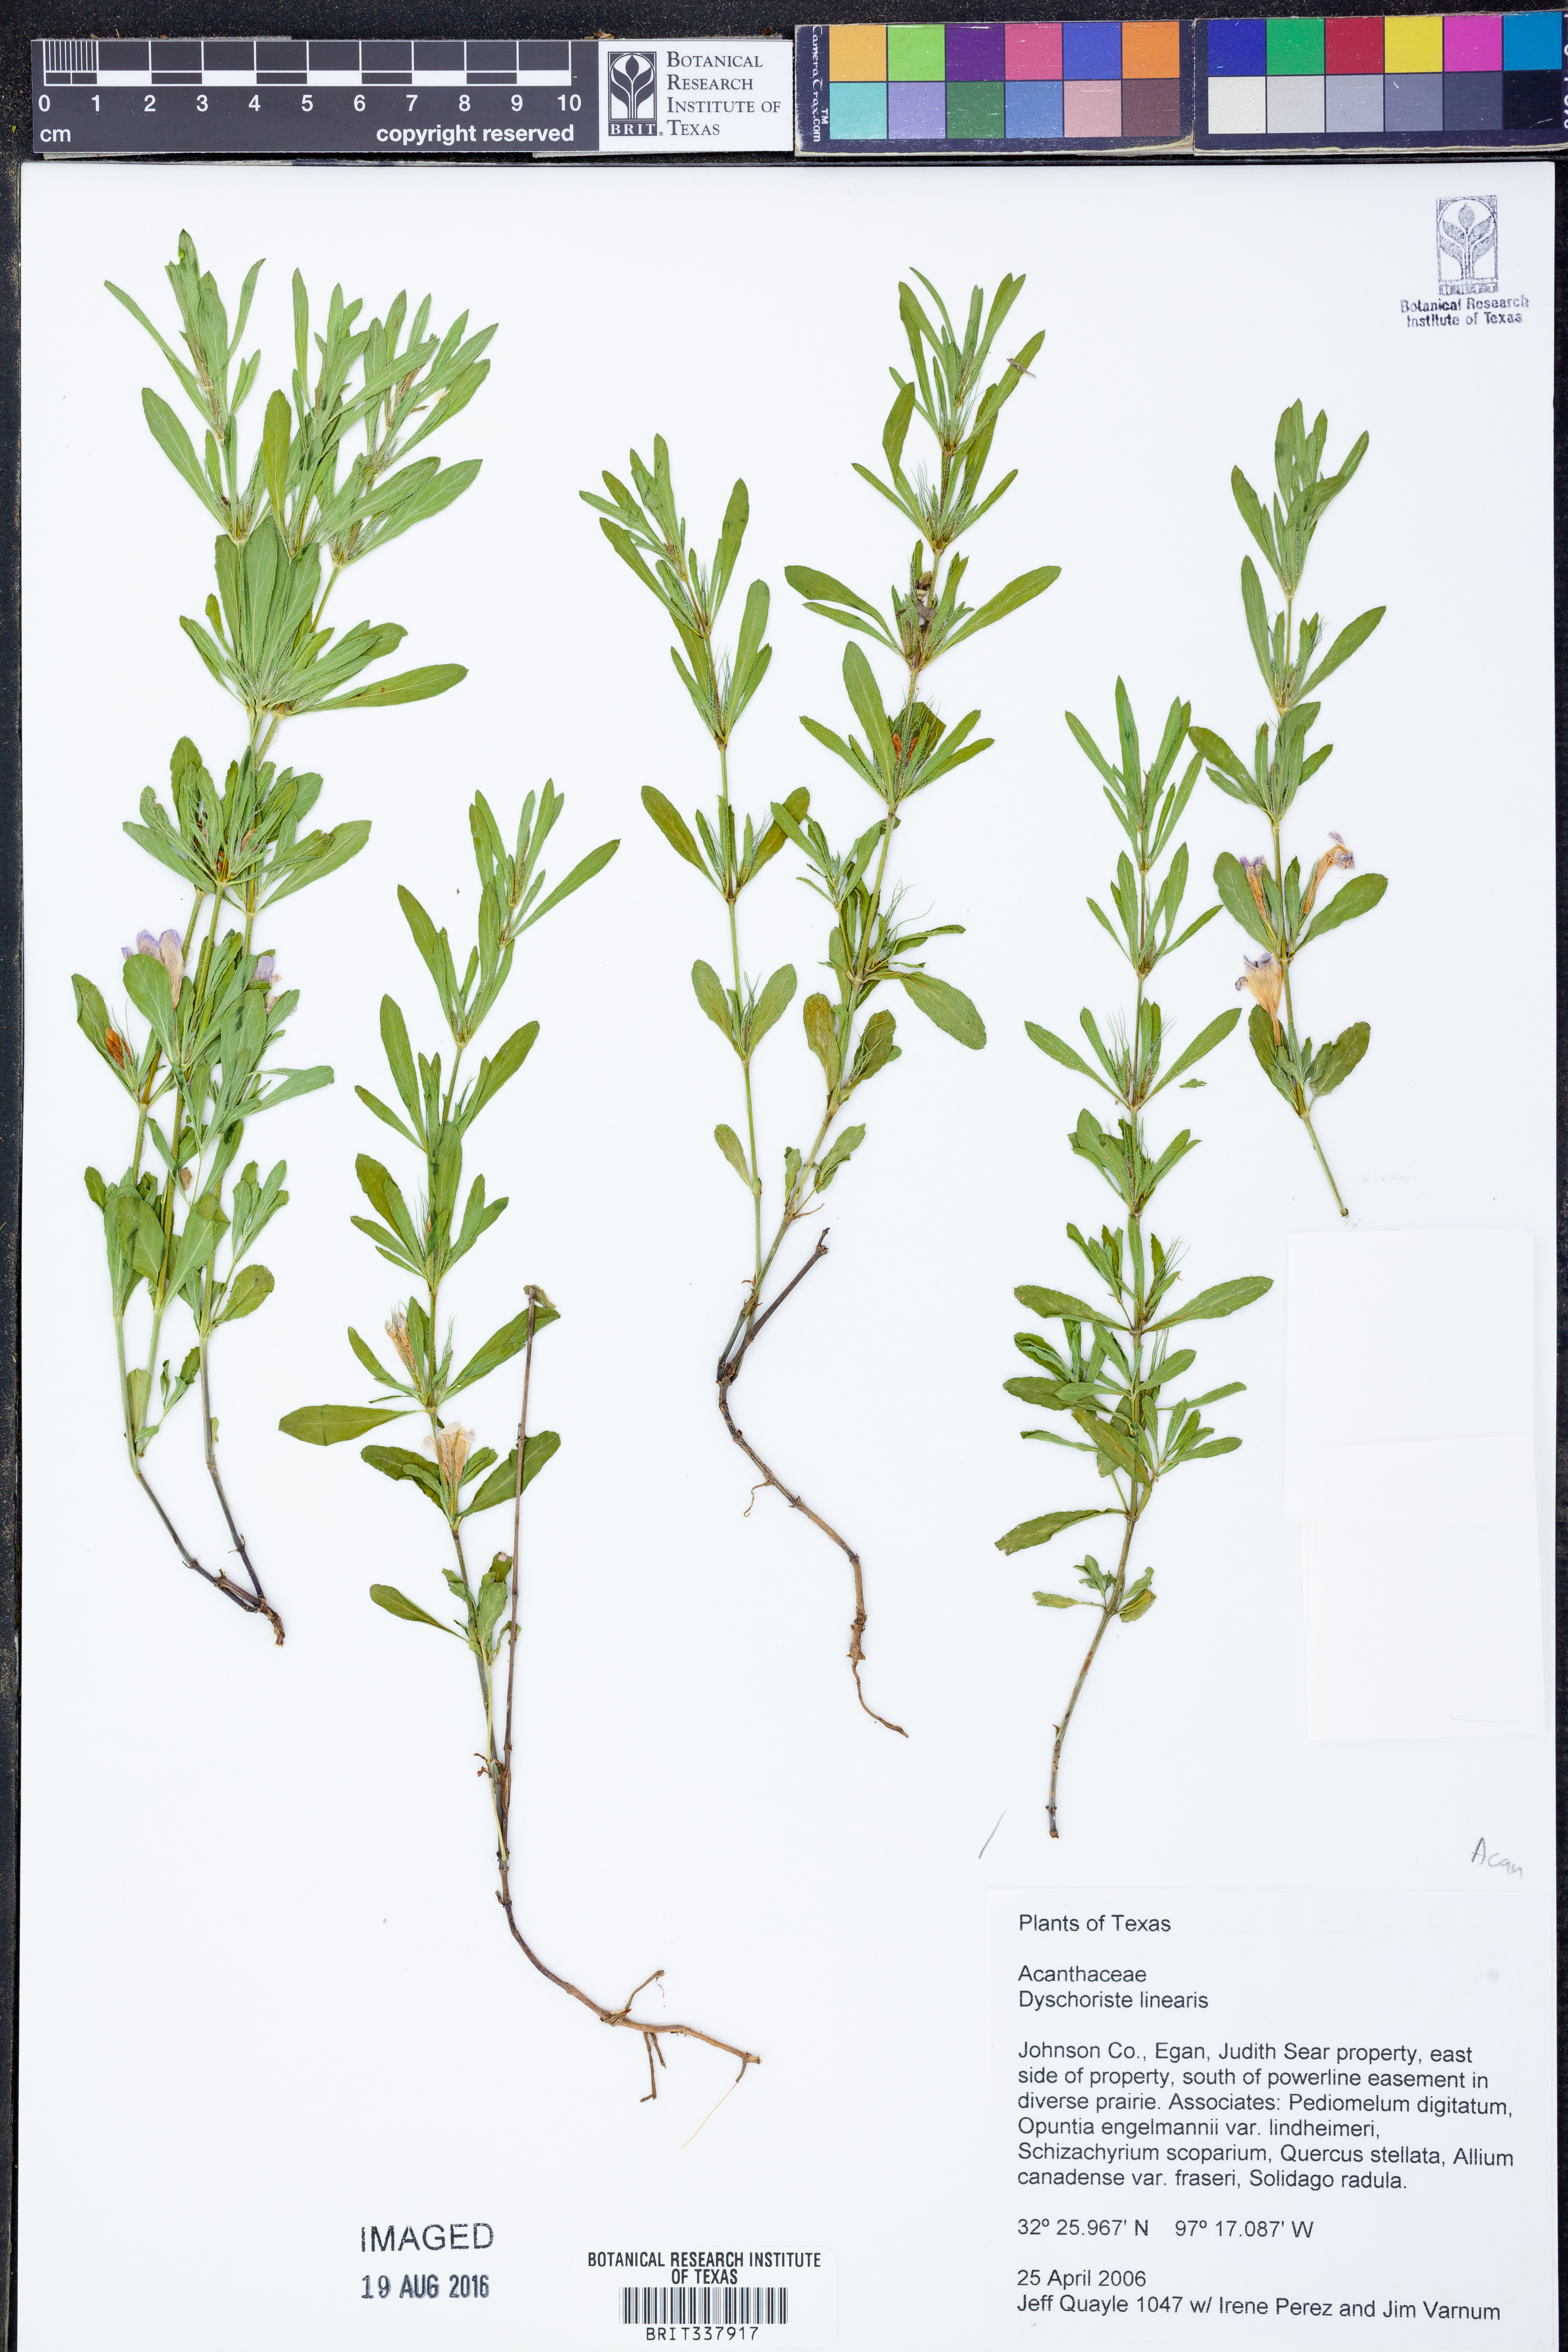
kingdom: Plantae
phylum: Tracheophyta
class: Magnoliopsida
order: Lamiales
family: Acanthaceae
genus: Dyschoriste
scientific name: Dyschoriste linearis
